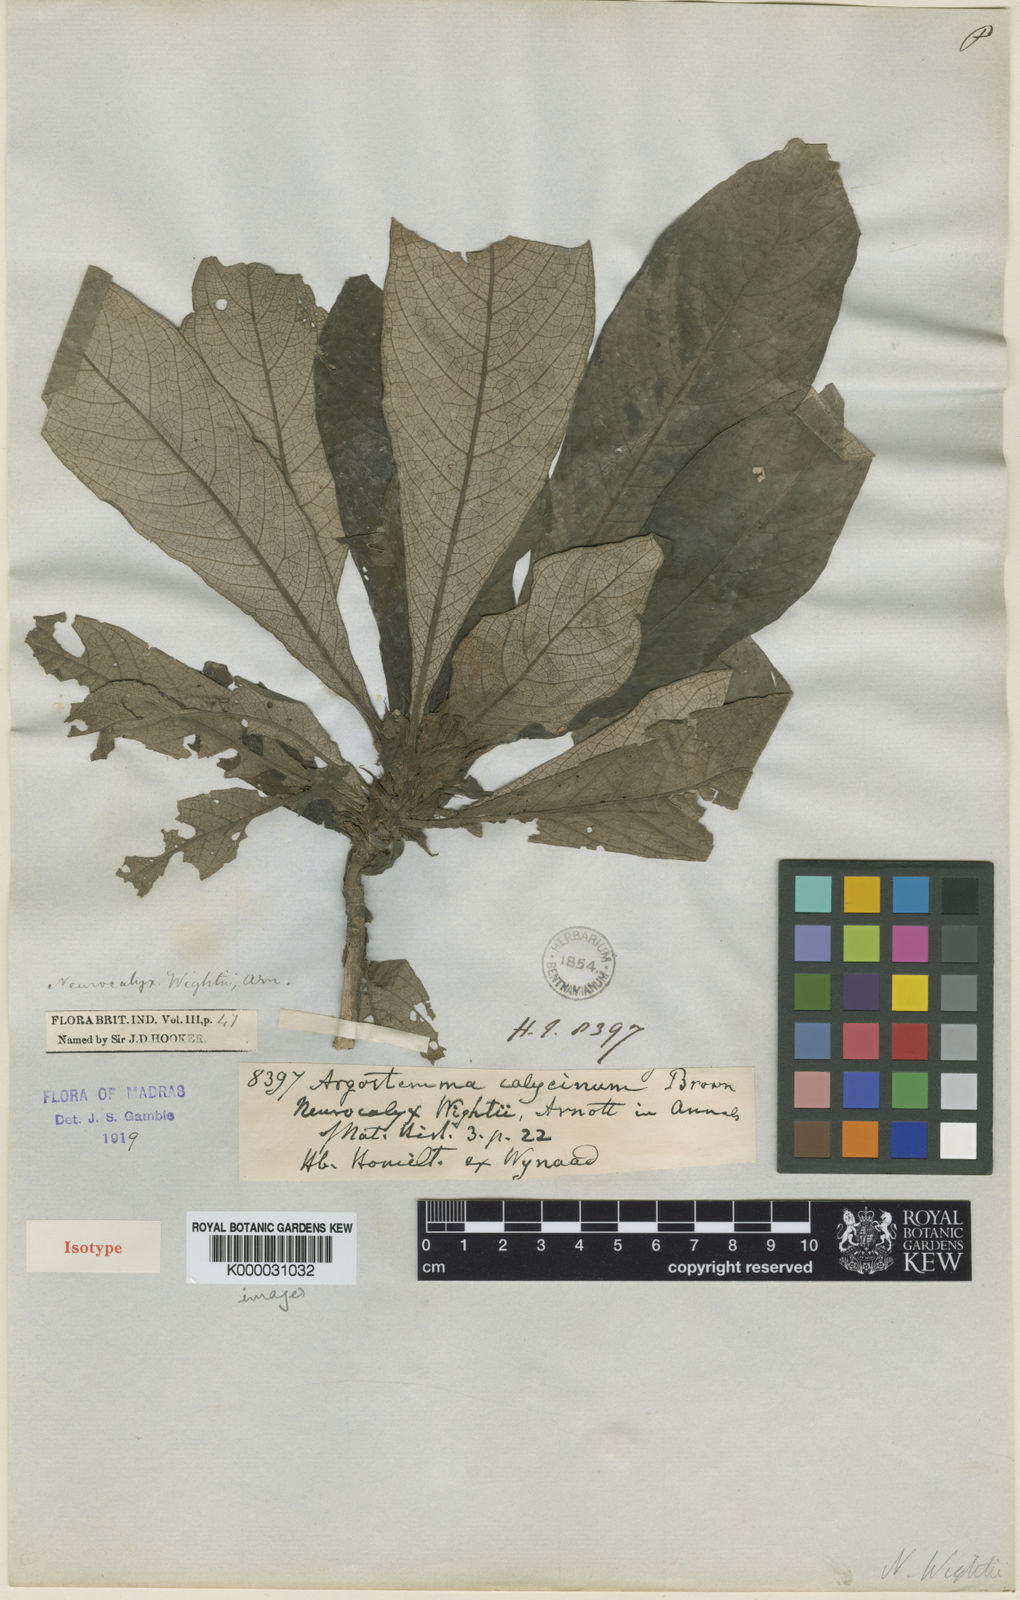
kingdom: Plantae
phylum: Tracheophyta
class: Magnoliopsida
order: Gentianales
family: Rubiaceae
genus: Neurocalyx
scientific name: Neurocalyx calycinus
